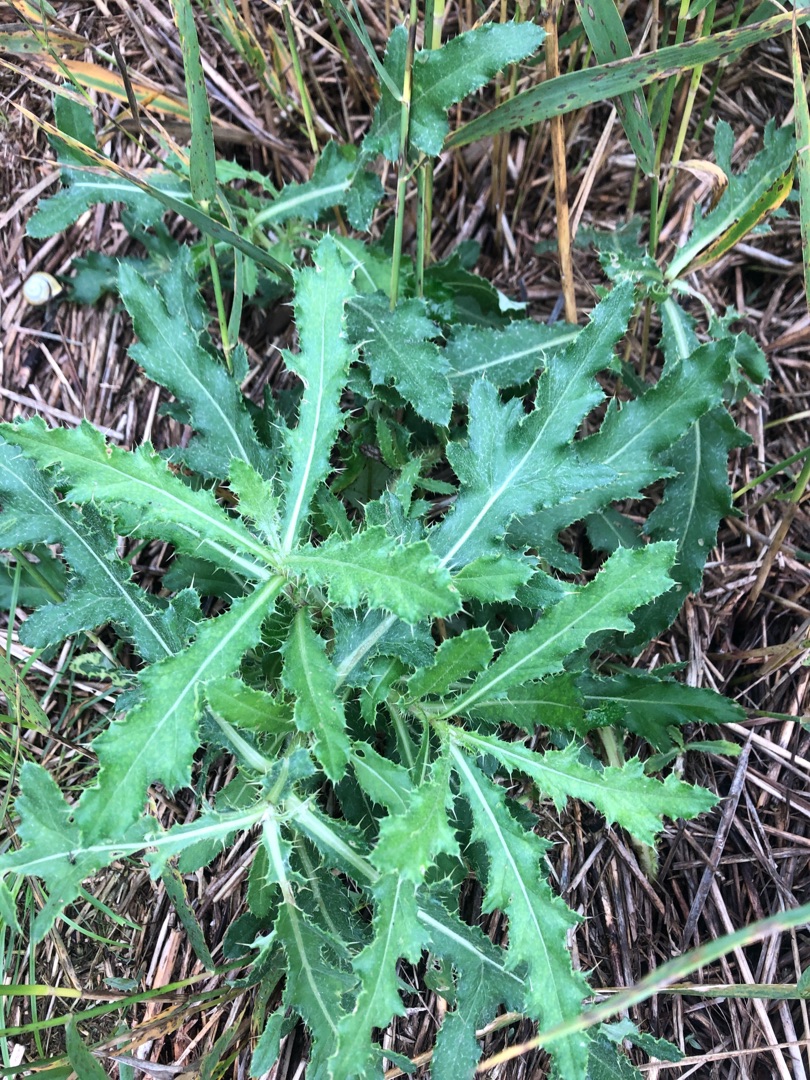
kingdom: Plantae
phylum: Tracheophyta
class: Magnoliopsida
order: Asterales
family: Asteraceae
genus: Cirsium
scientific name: Cirsium arvense
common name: Ager-tidsel
